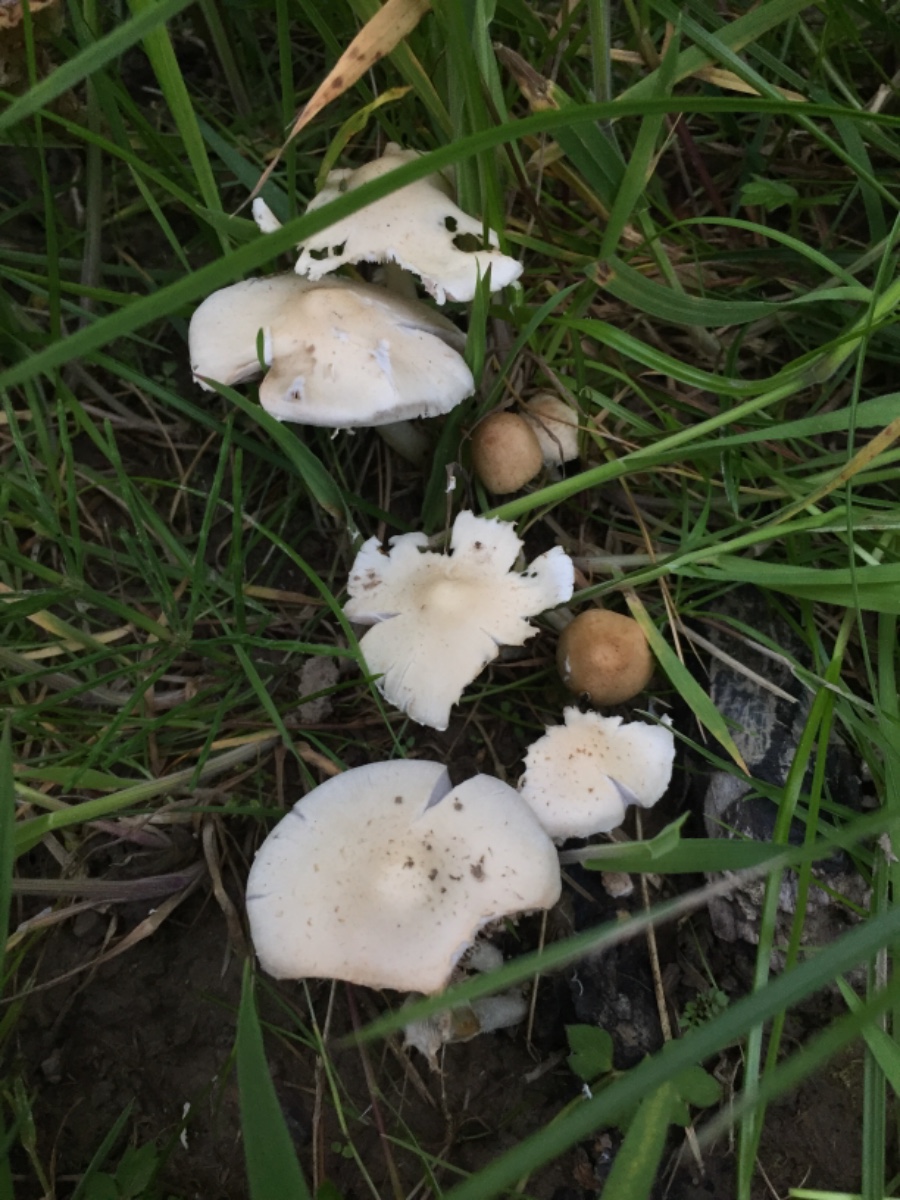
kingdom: Fungi
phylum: Basidiomycota
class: Agaricomycetes
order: Agaricales
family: Psathyrellaceae
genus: Candolleomyces
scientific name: Candolleomyces candolleanus
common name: Candolles mørkhat
